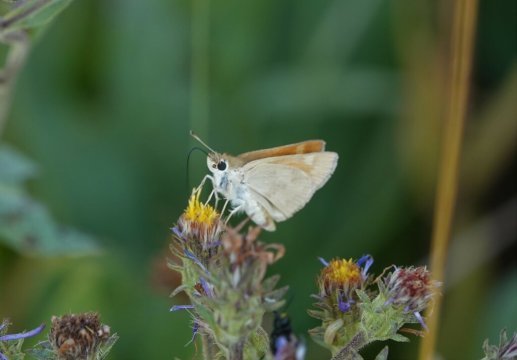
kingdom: Animalia
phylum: Arthropoda
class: Insecta
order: Lepidoptera
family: Hesperiidae
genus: Ochlodes
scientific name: Ochlodes sylvanoides
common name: Woodland Skipper
